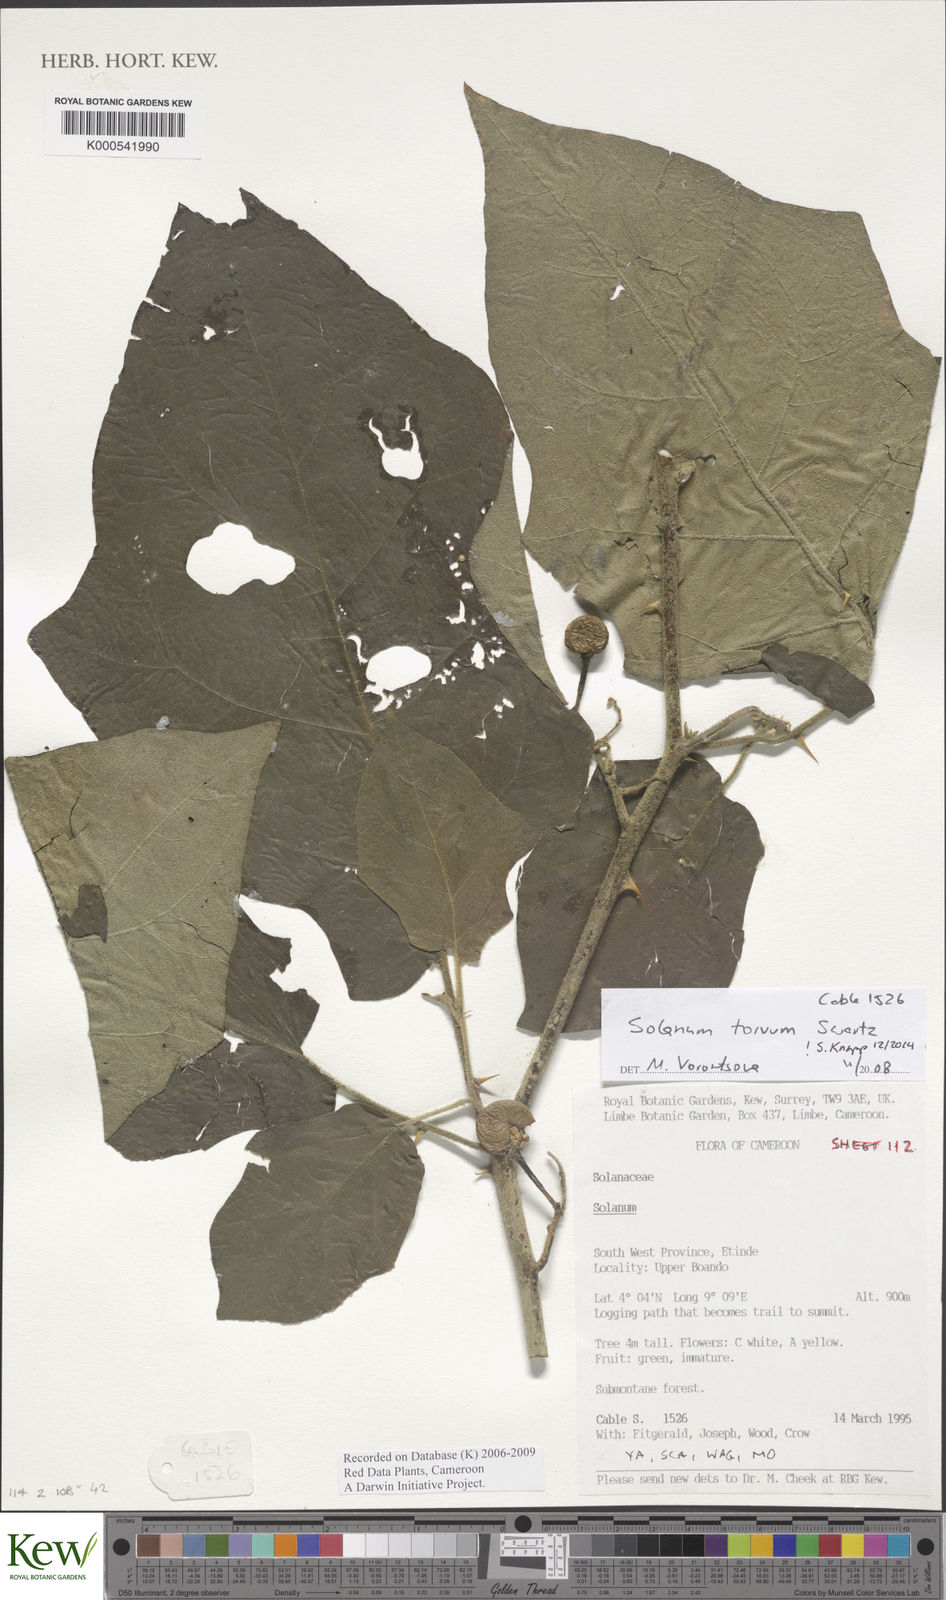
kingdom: Plantae
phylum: Tracheophyta
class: Magnoliopsida
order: Solanales
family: Solanaceae
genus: Solanum
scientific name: Solanum torvum
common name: Turkey berry
